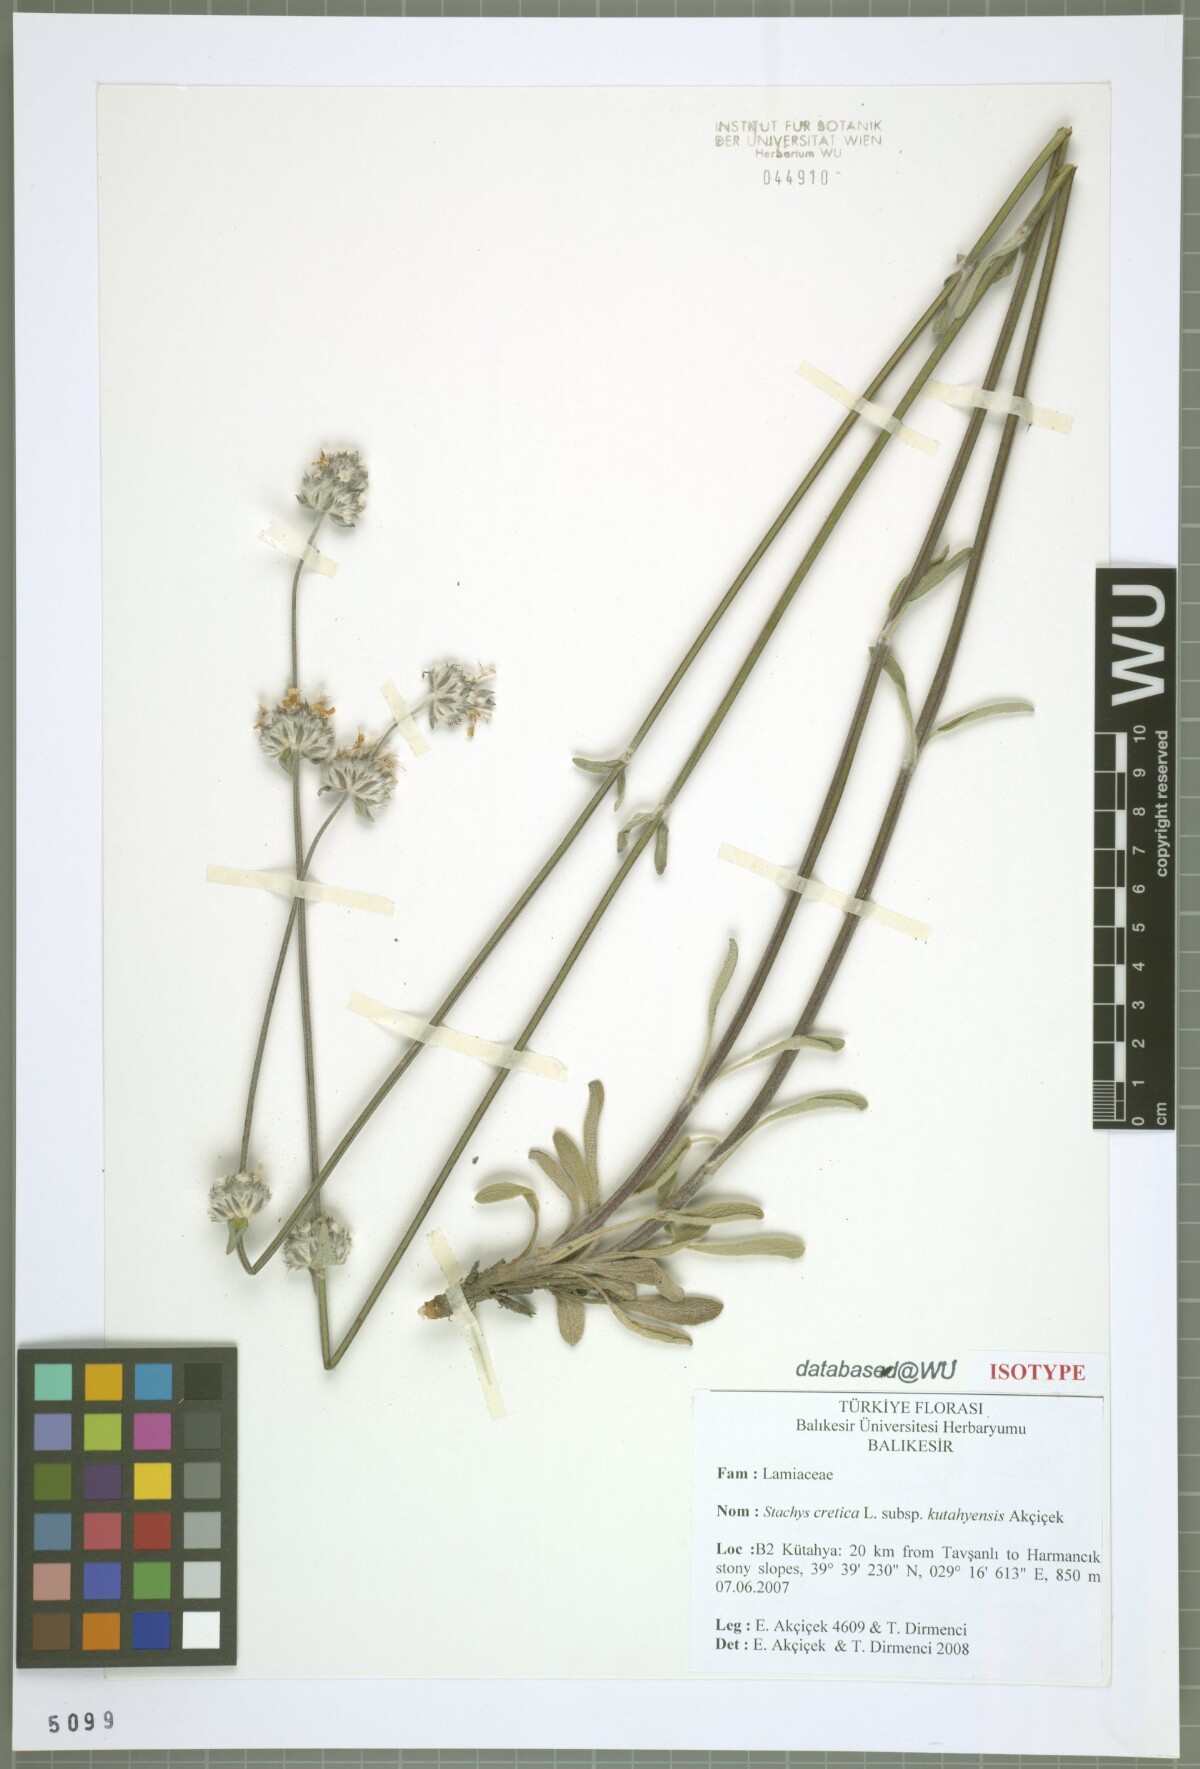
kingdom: Plantae
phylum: Tracheophyta
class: Magnoliopsida
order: Lamiales
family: Lamiaceae
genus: Stachys
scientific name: Stachys cretica
